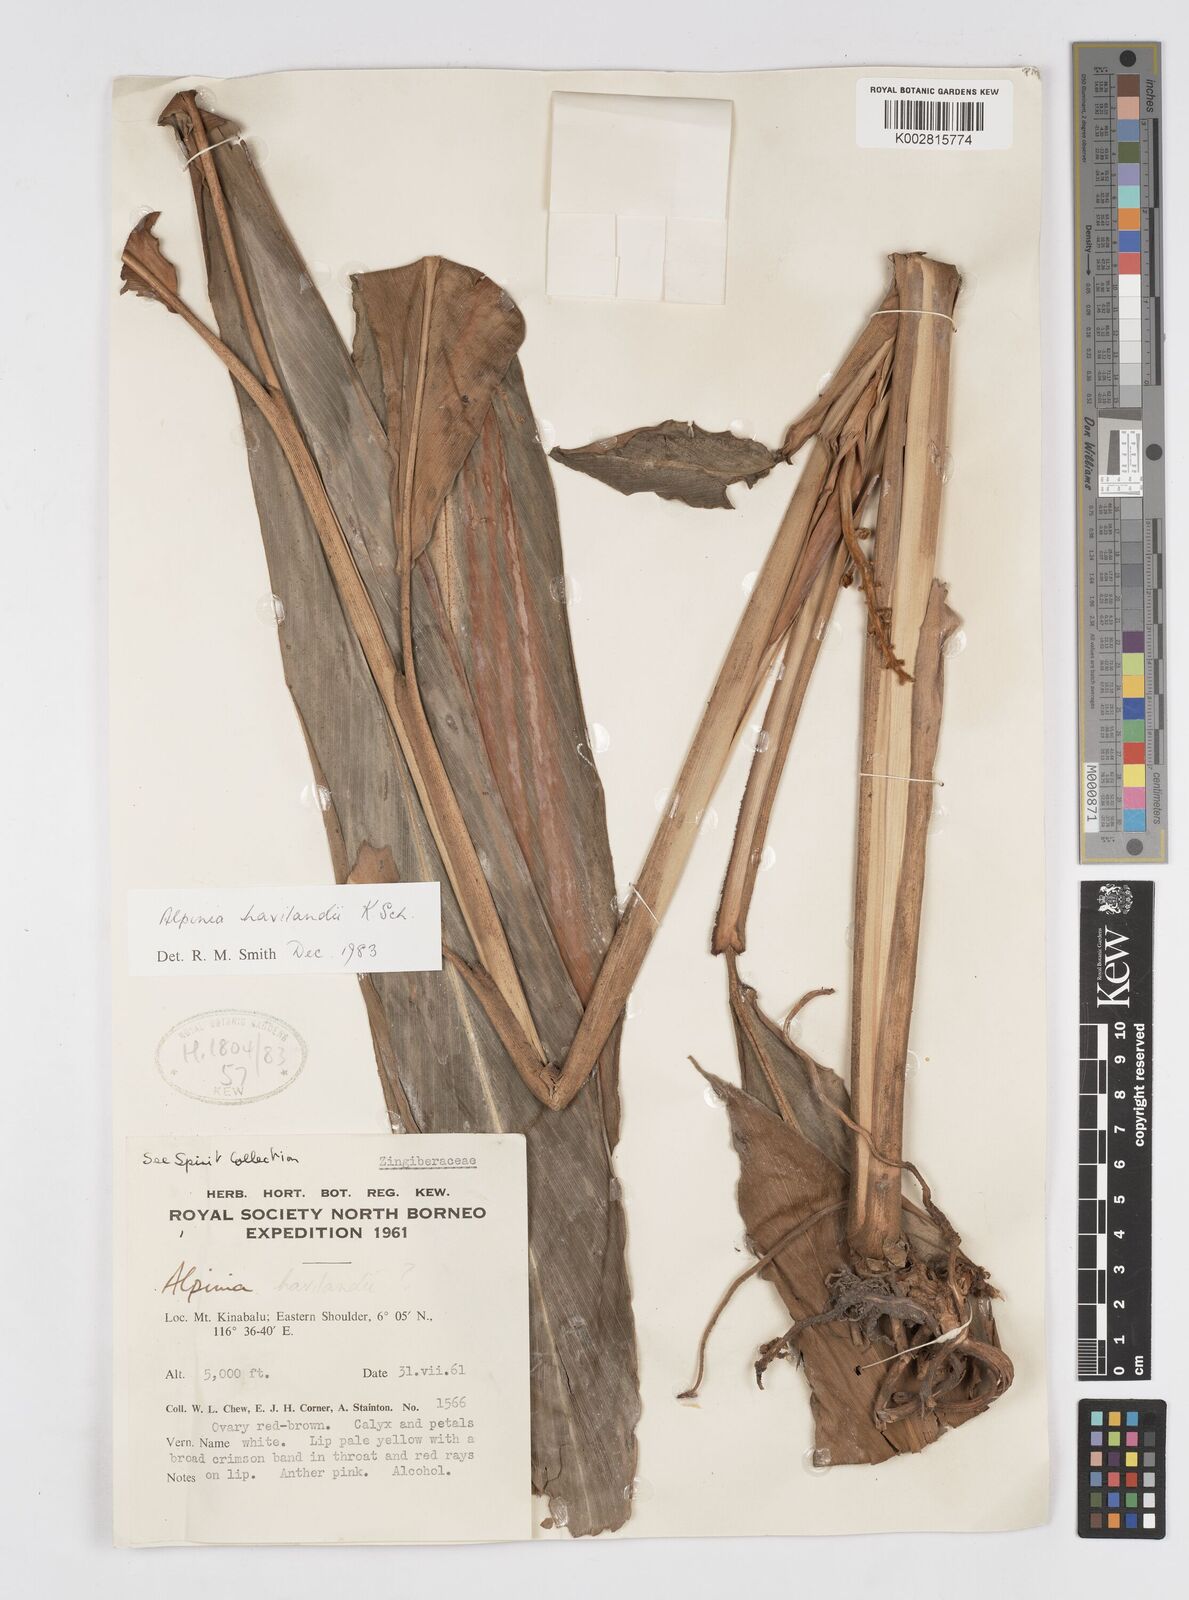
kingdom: Plantae
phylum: Tracheophyta
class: Liliopsida
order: Zingiberales
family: Zingiberaceae
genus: Alpinia
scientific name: Alpinia havilandii
